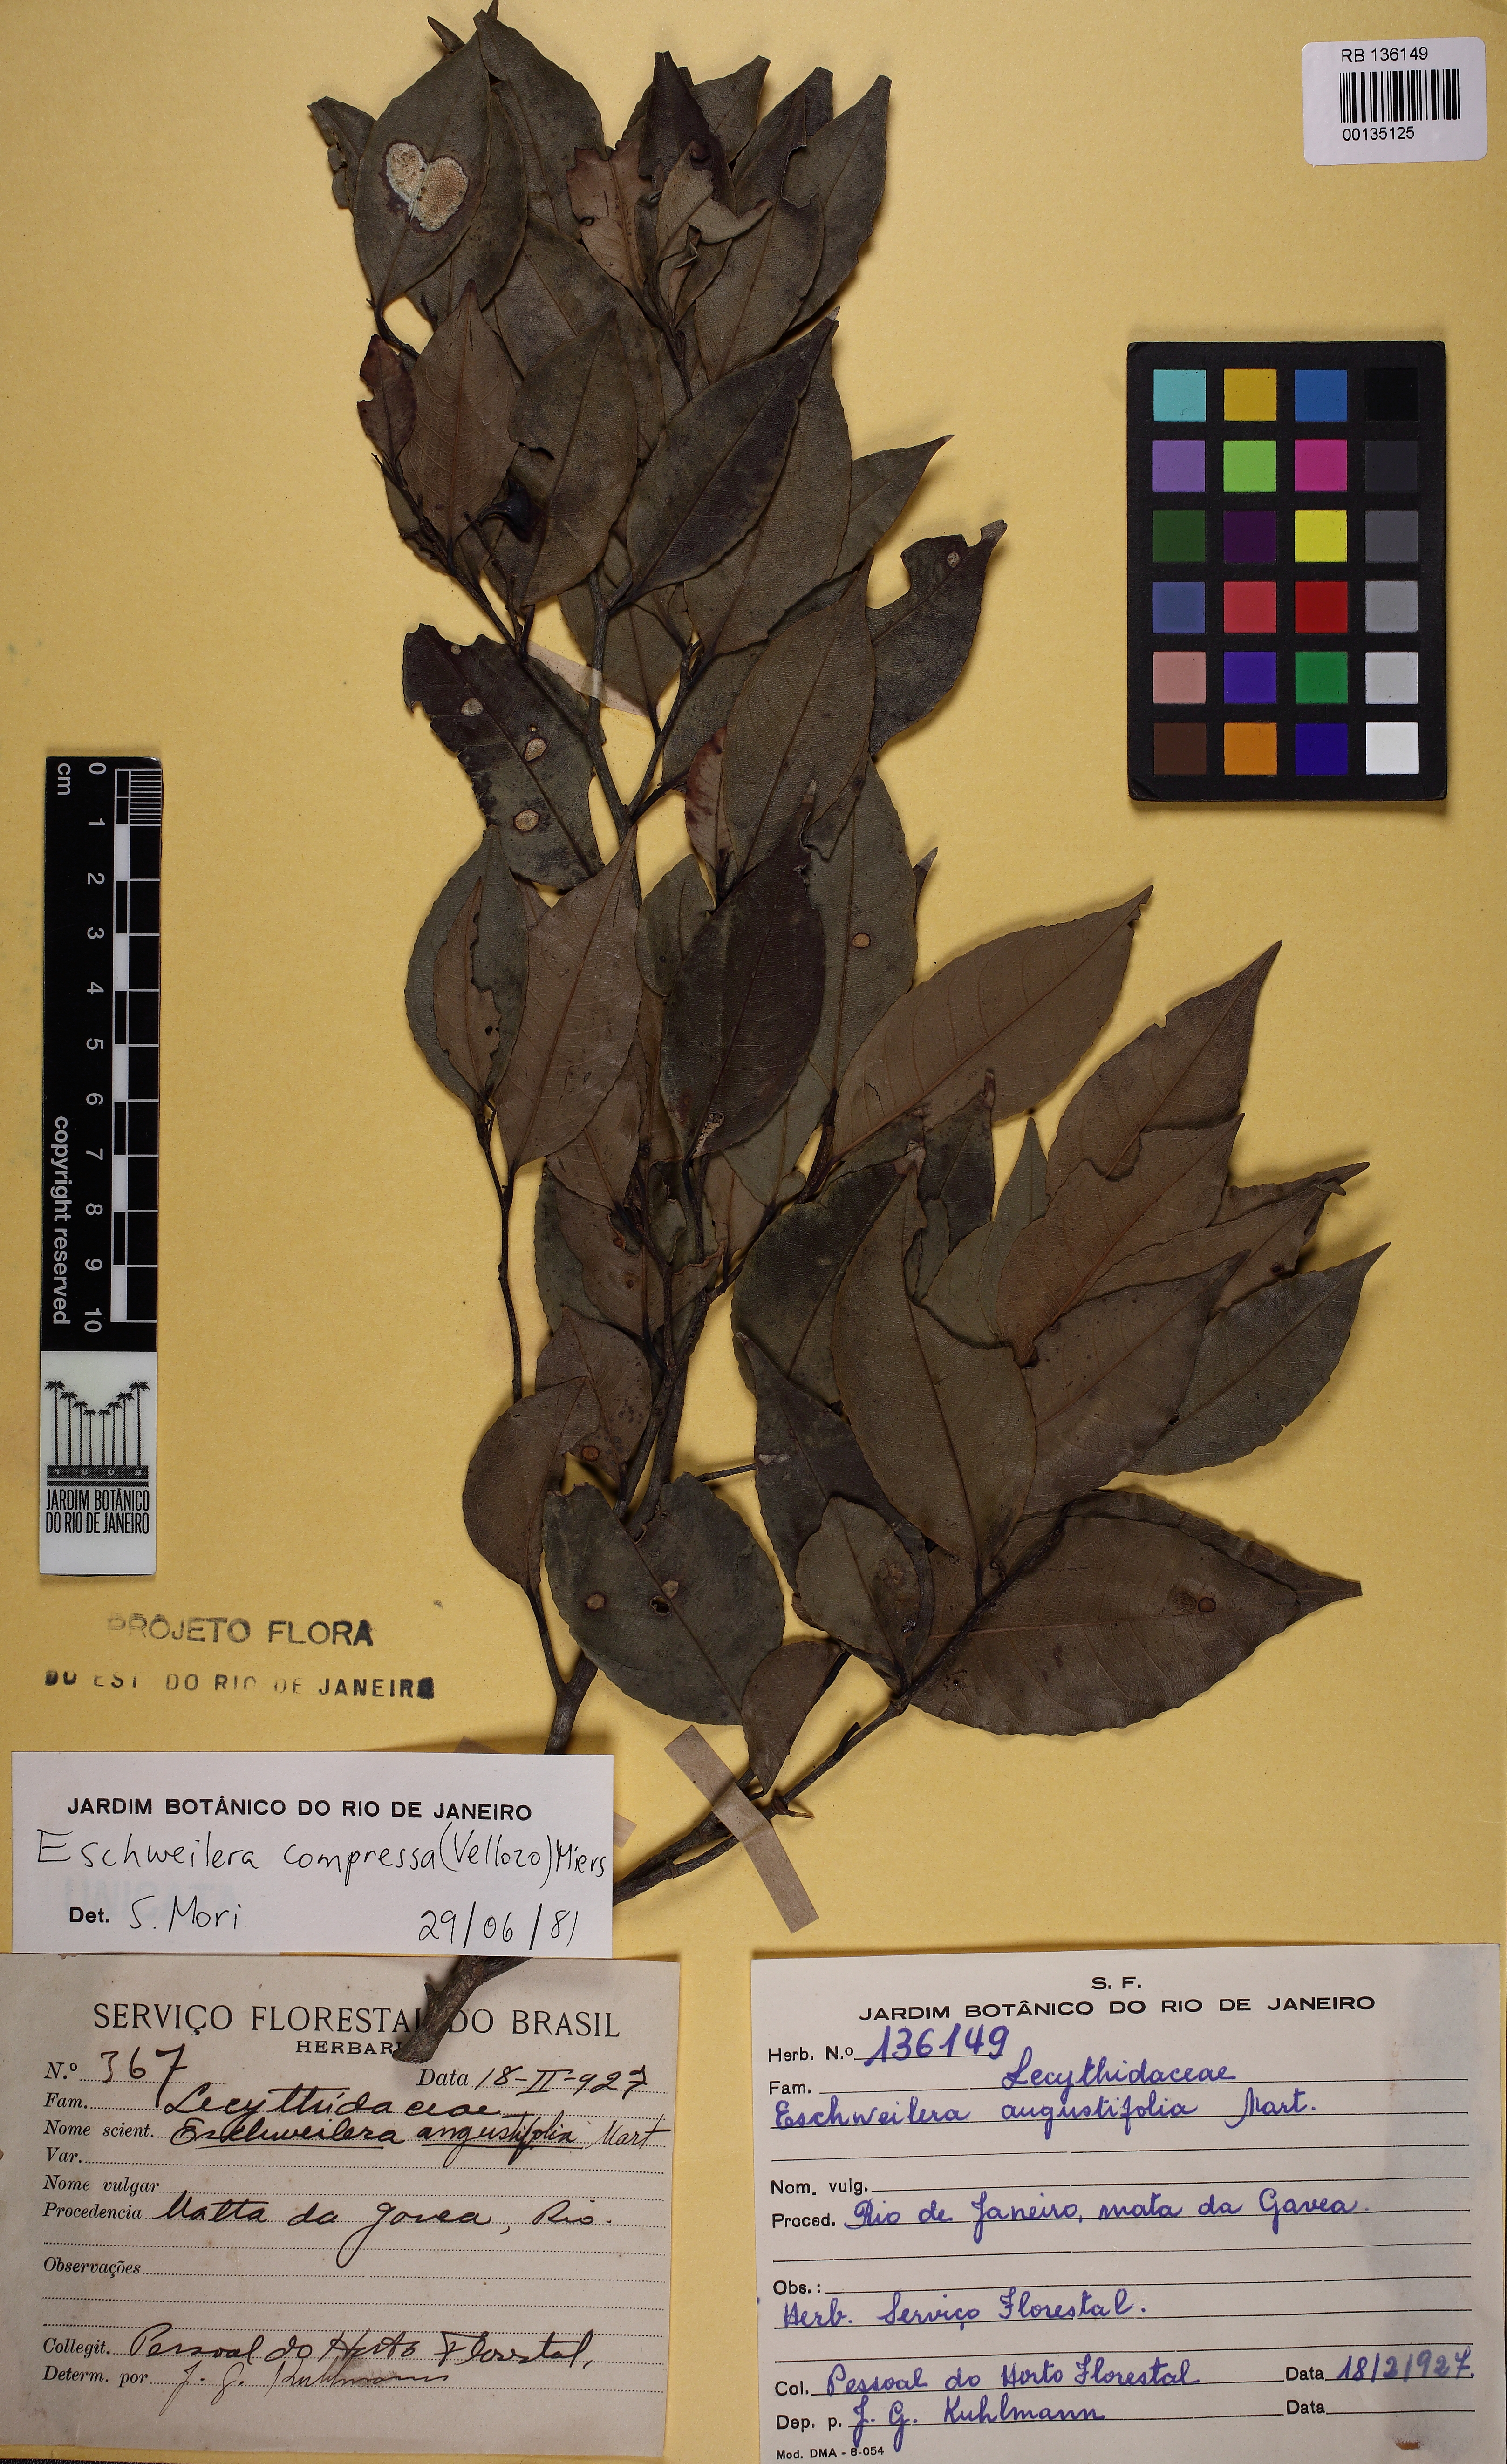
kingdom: Plantae
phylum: Tracheophyta
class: Magnoliopsida
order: Ericales
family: Lecythidaceae
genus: Eschweilera
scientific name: Eschweilera compressa
